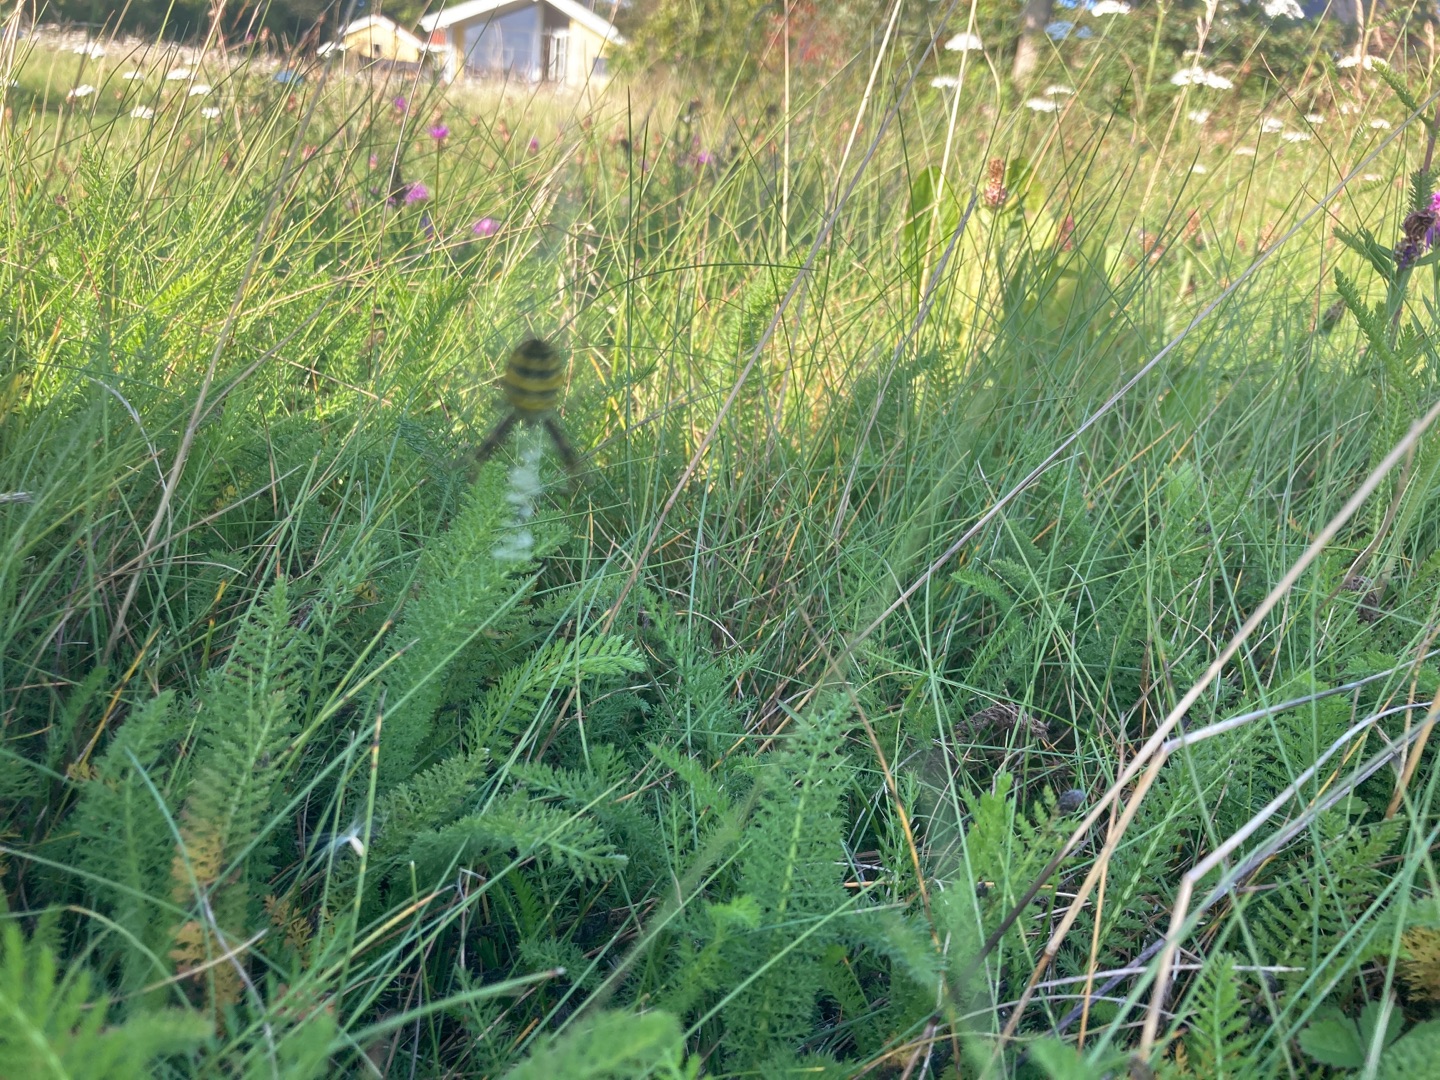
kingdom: Animalia
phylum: Arthropoda
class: Arachnida
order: Araneae
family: Araneidae
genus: Argiope
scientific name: Argiope bruennichi
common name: Hvepseedderkop
